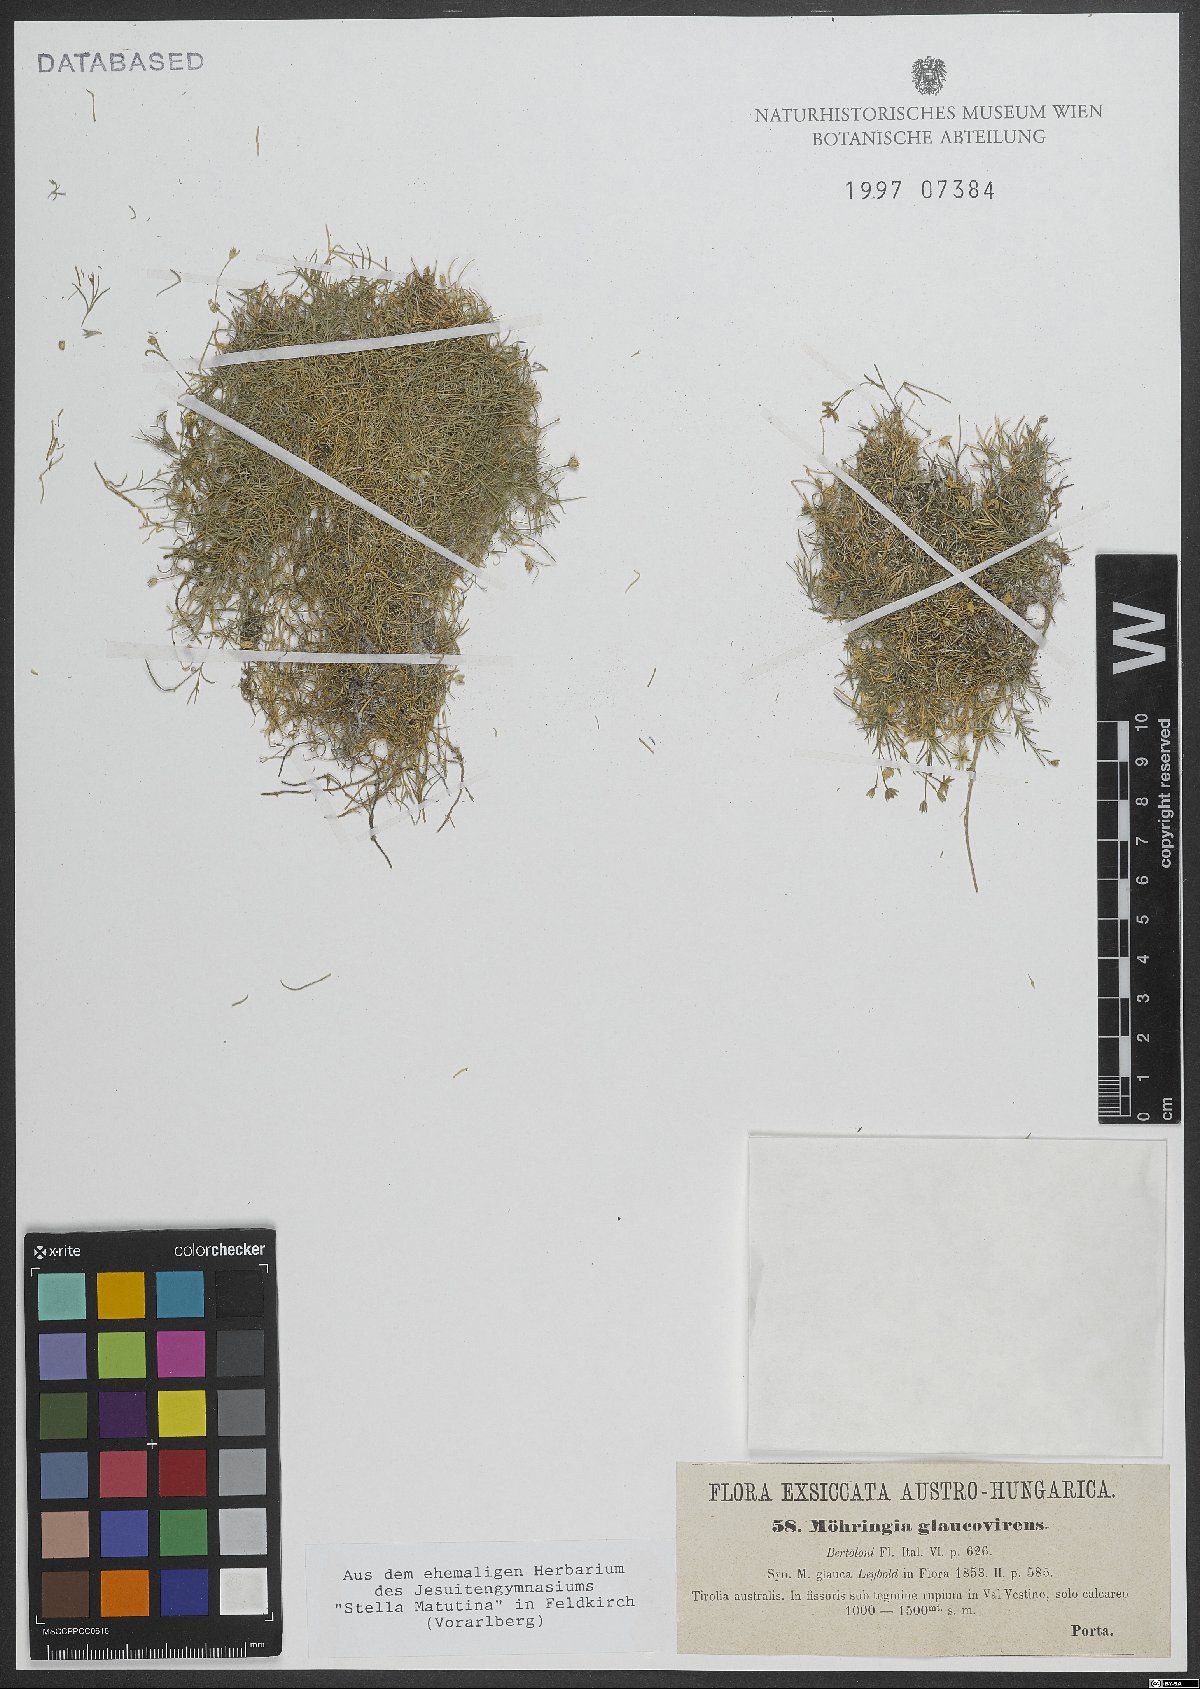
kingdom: Plantae
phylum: Tracheophyta
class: Magnoliopsida
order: Caryophyllales
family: Caryophyllaceae
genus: Moehringia
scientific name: Moehringia glaucovirens
